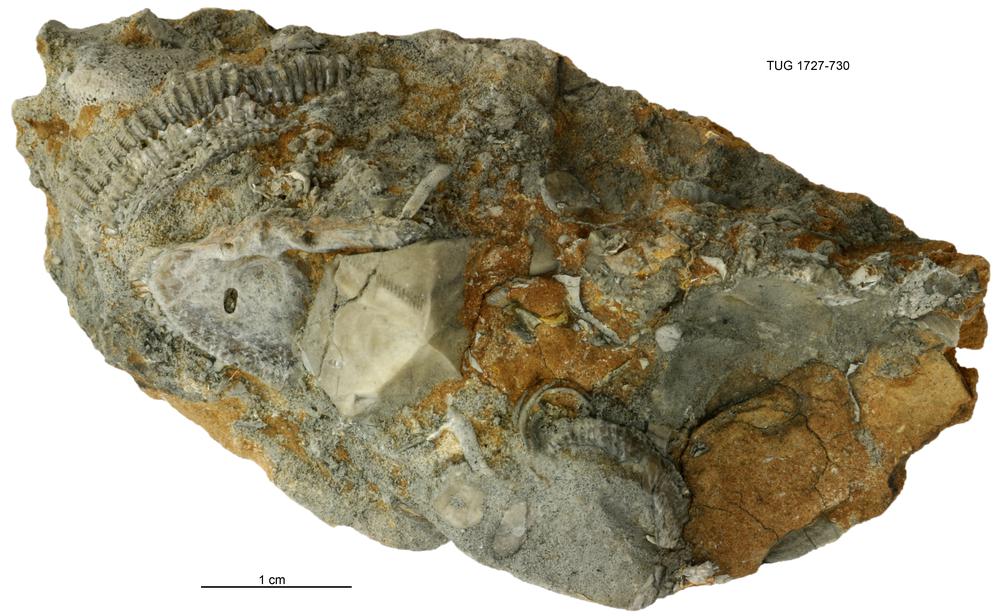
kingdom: Animalia
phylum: Echinodermata
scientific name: Echinodermata
